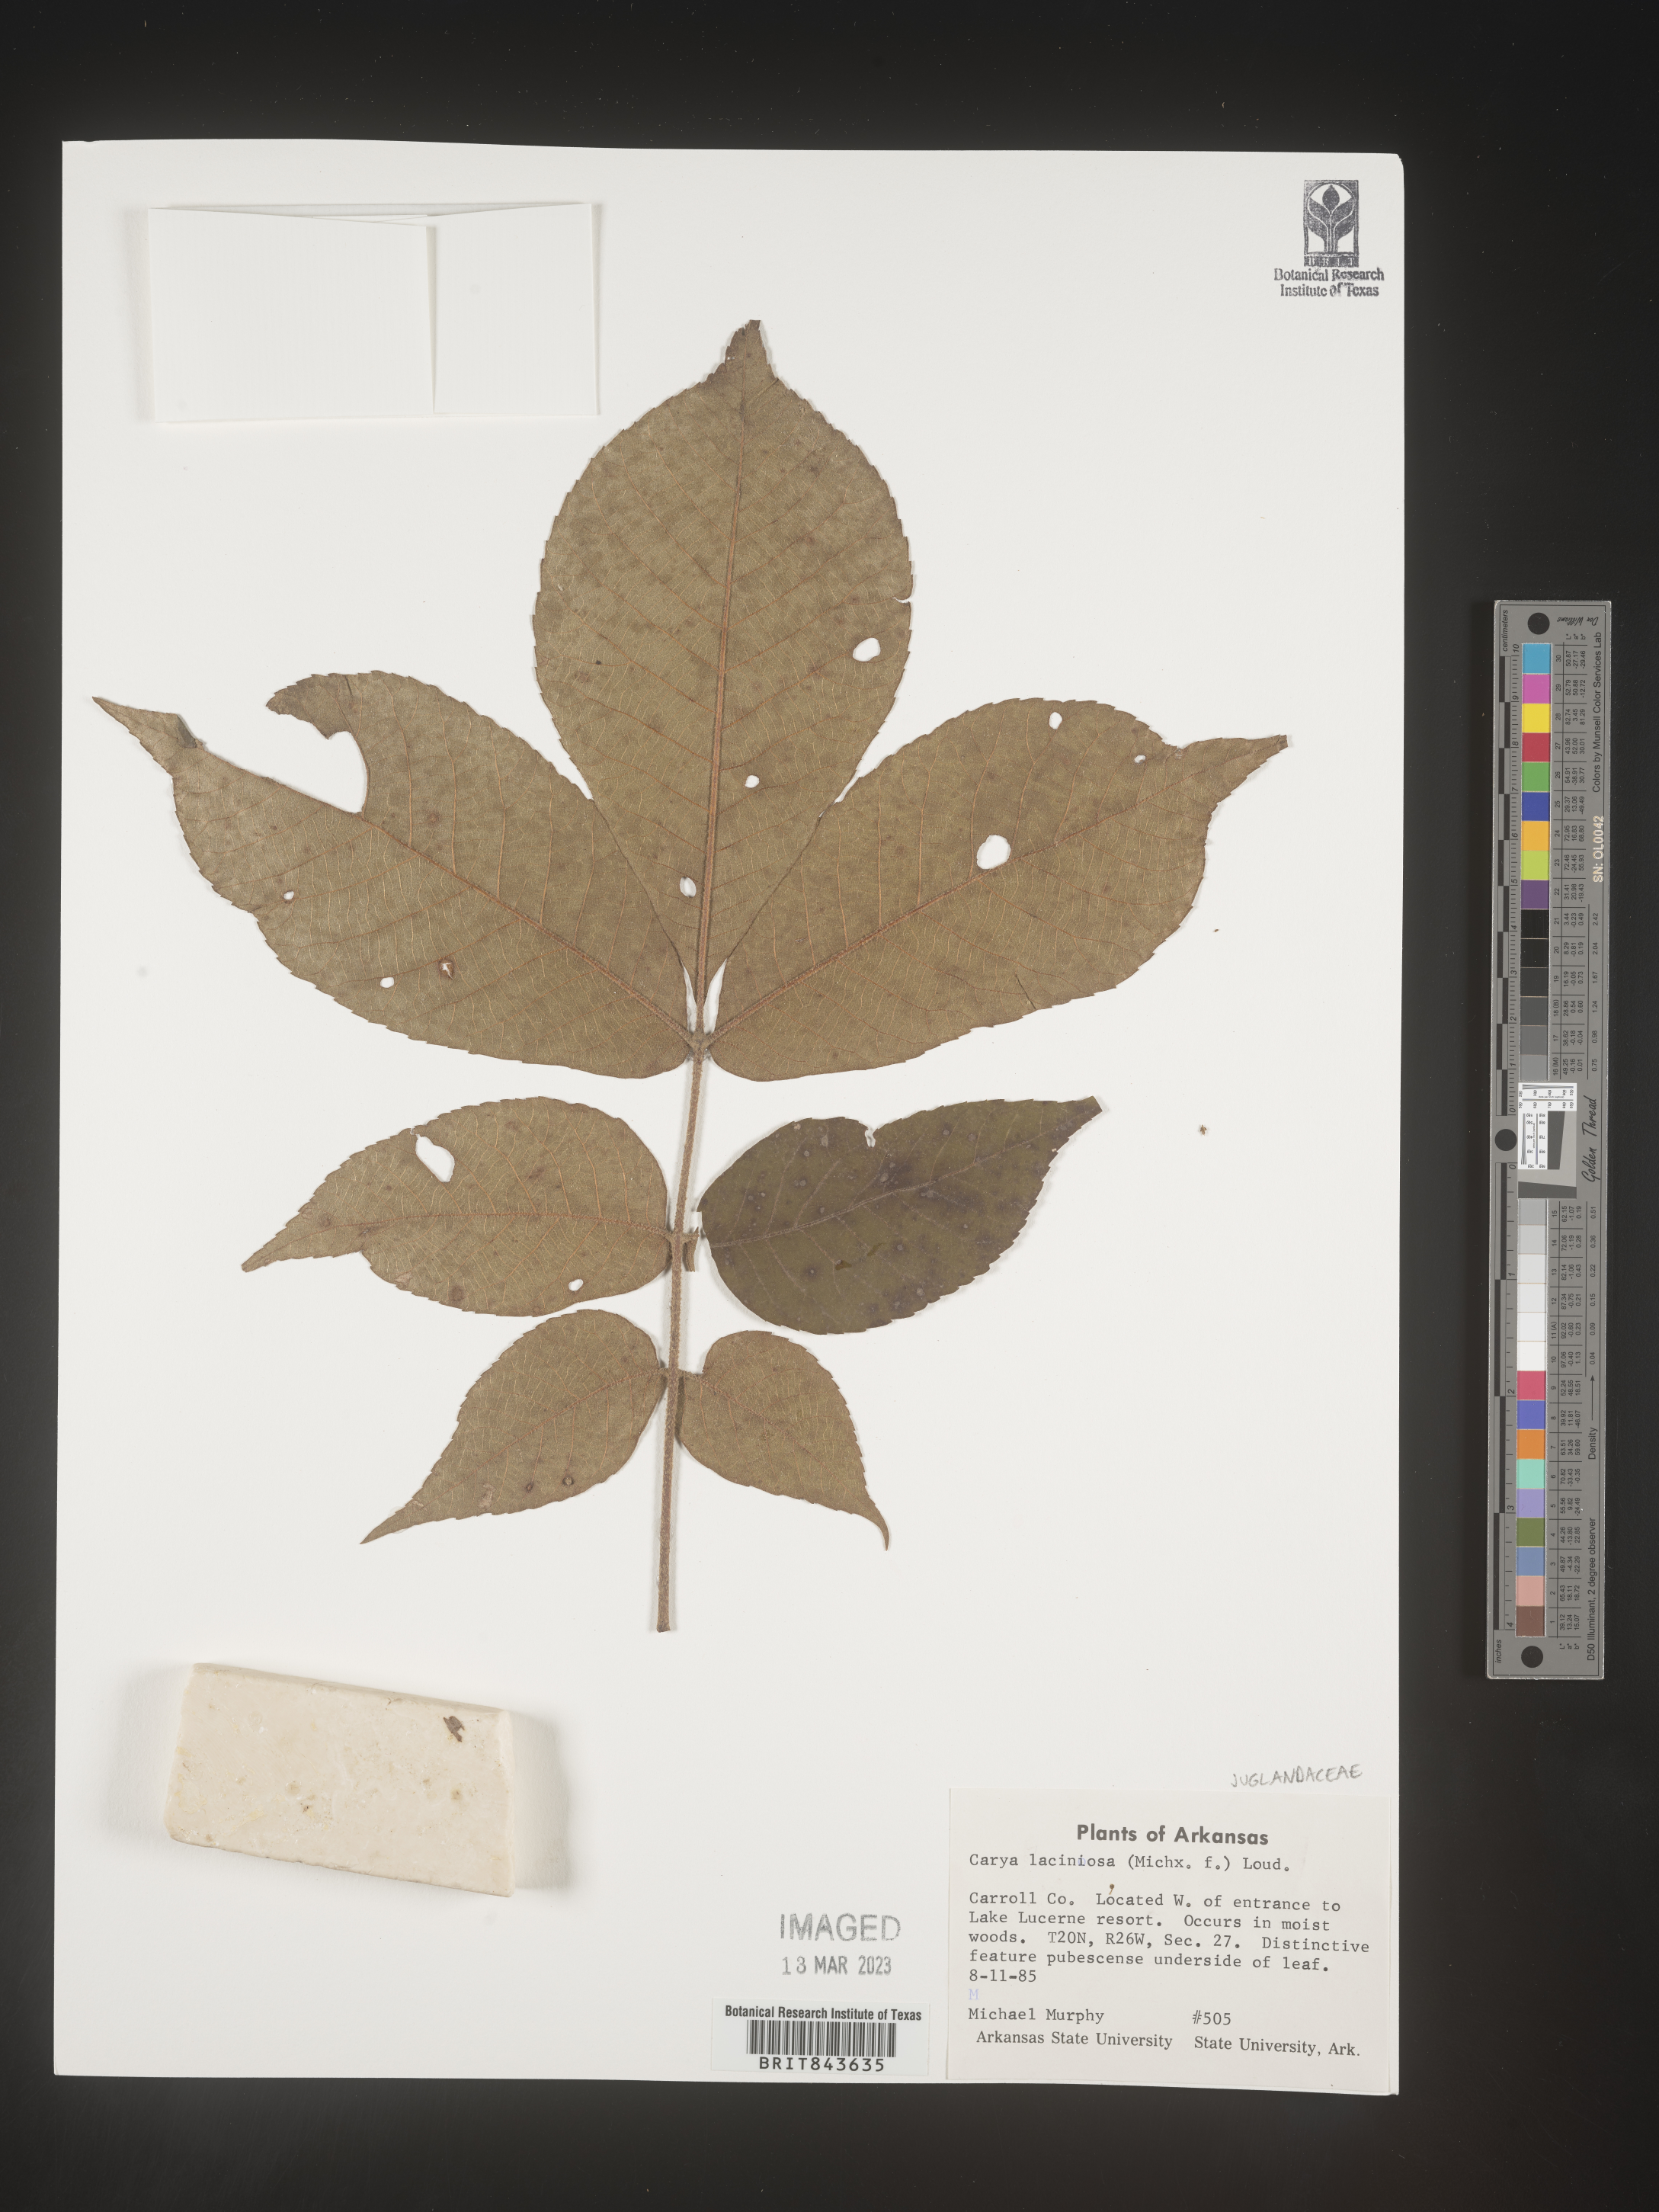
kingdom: Plantae
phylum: Tracheophyta
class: Magnoliopsida
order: Fagales
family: Juglandaceae
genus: Carya
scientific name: Carya laciniosa
